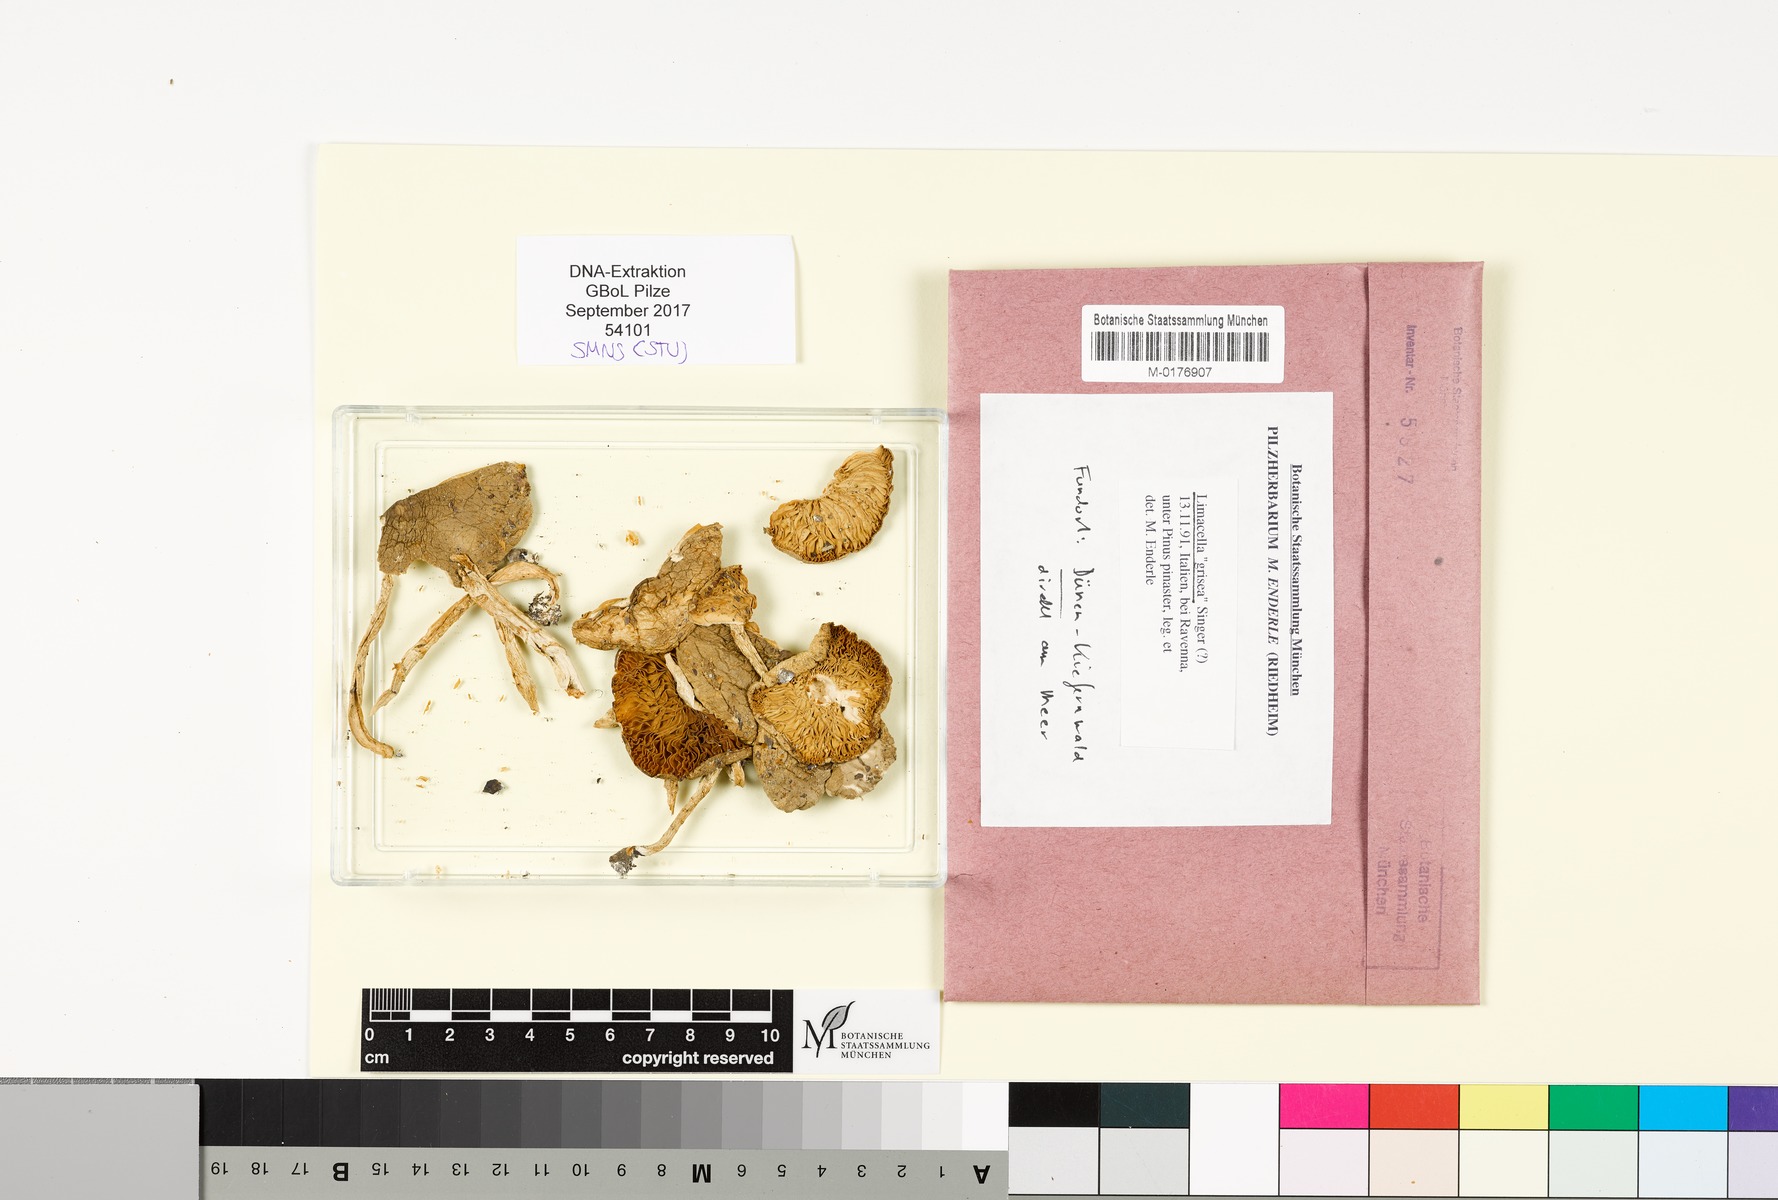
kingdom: Fungi
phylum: Basidiomycota
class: Agaricomycetes
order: Agaricales
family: Amanitaceae
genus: Limacella
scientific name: Limacella grisea
